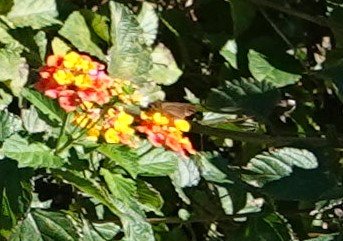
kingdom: Animalia
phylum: Arthropoda
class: Insecta
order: Lepidoptera
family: Hesperiidae
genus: Panoquina
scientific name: Panoquina ocola
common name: Ocola Skipper
